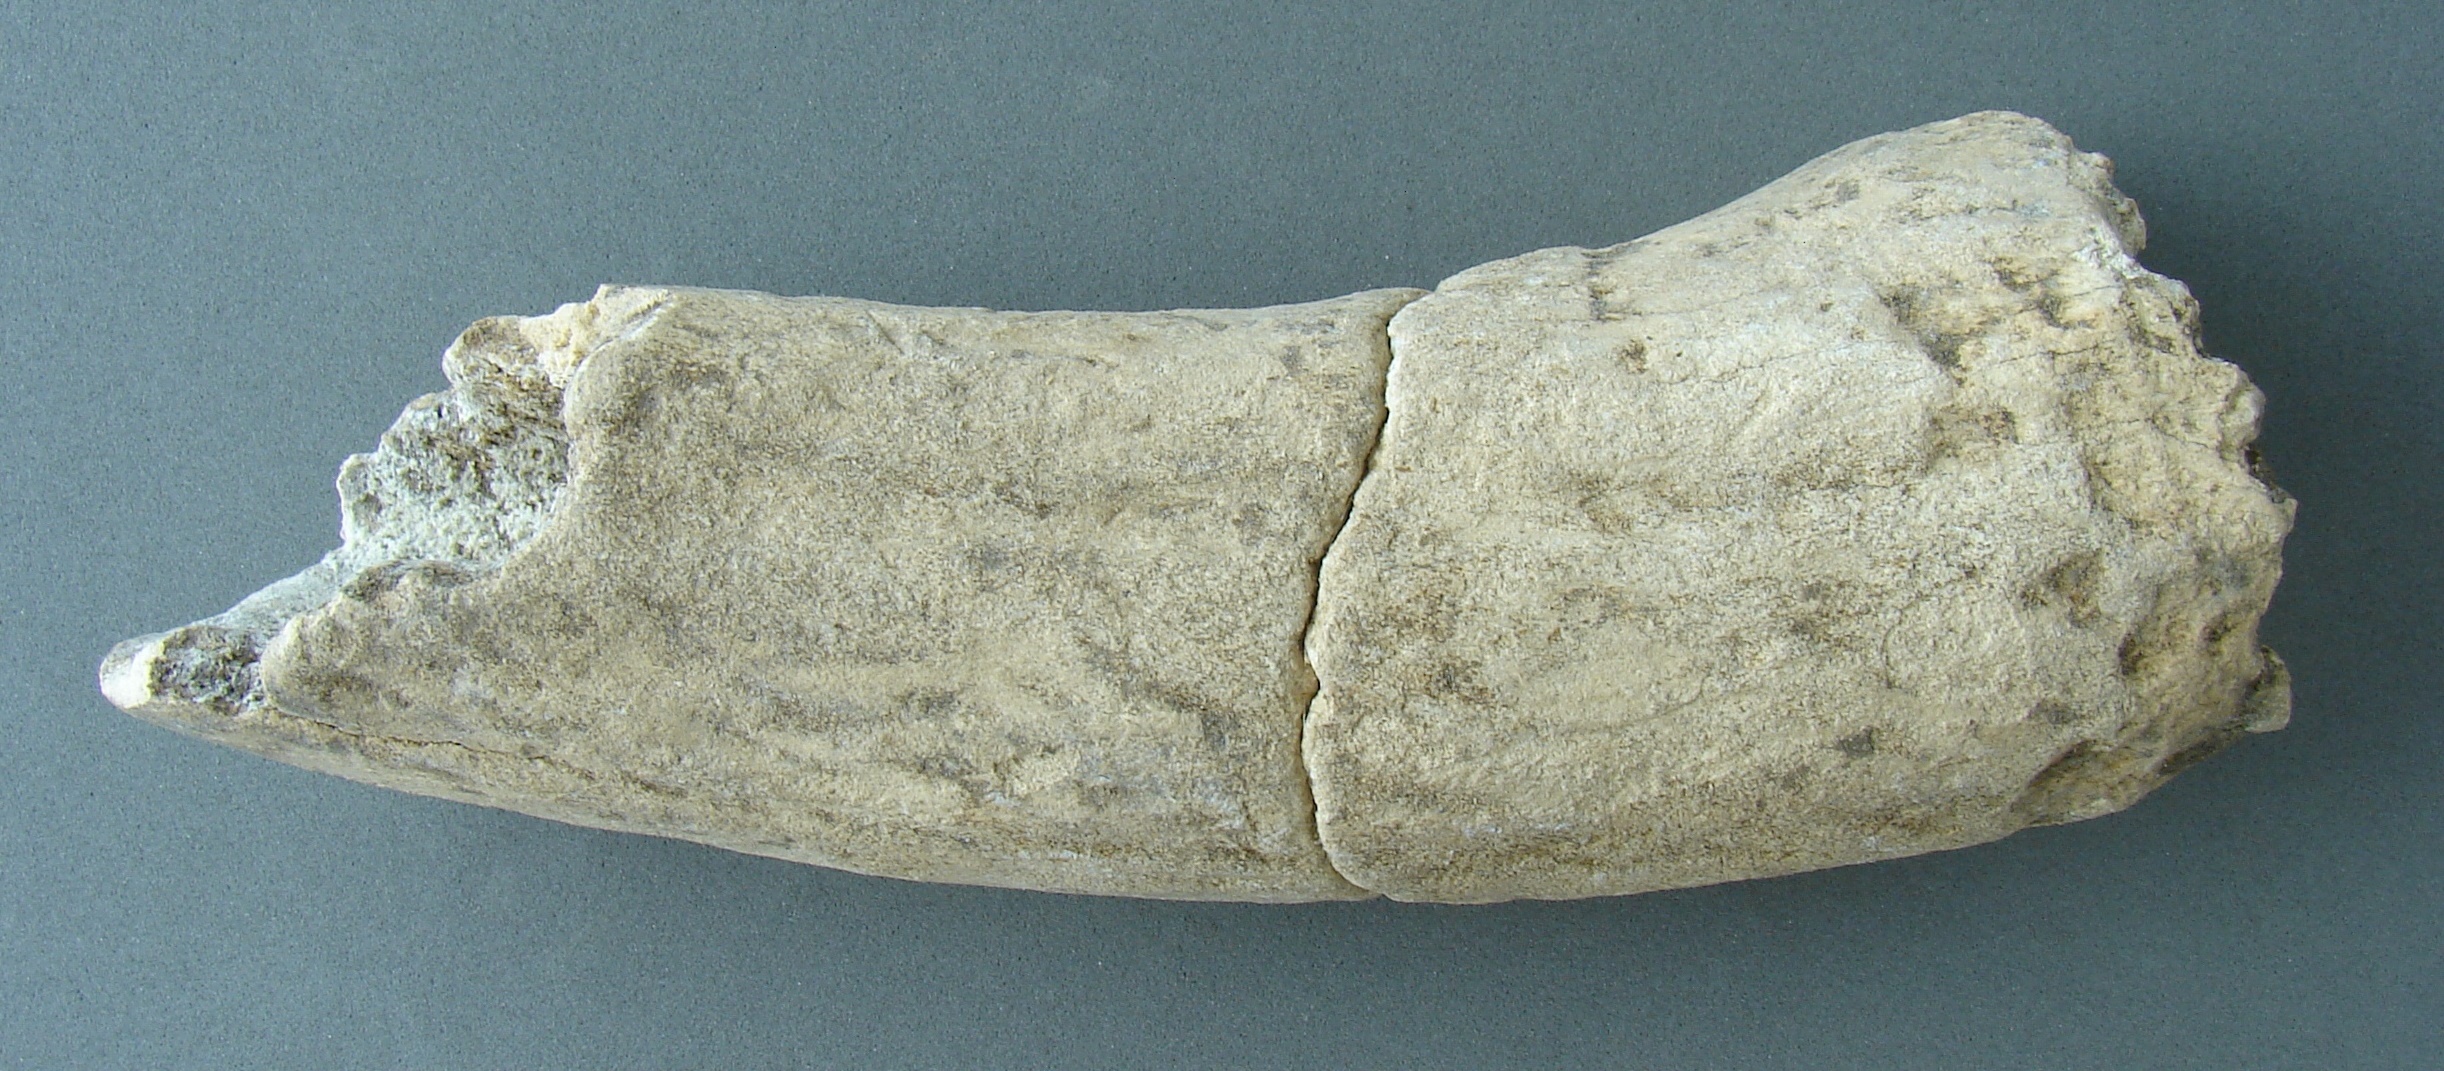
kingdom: Animalia
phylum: Chordata
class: Mammalia
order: Artiodactyla
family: Cervidae
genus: Cervus
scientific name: Cervus elaphus
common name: Red deer
